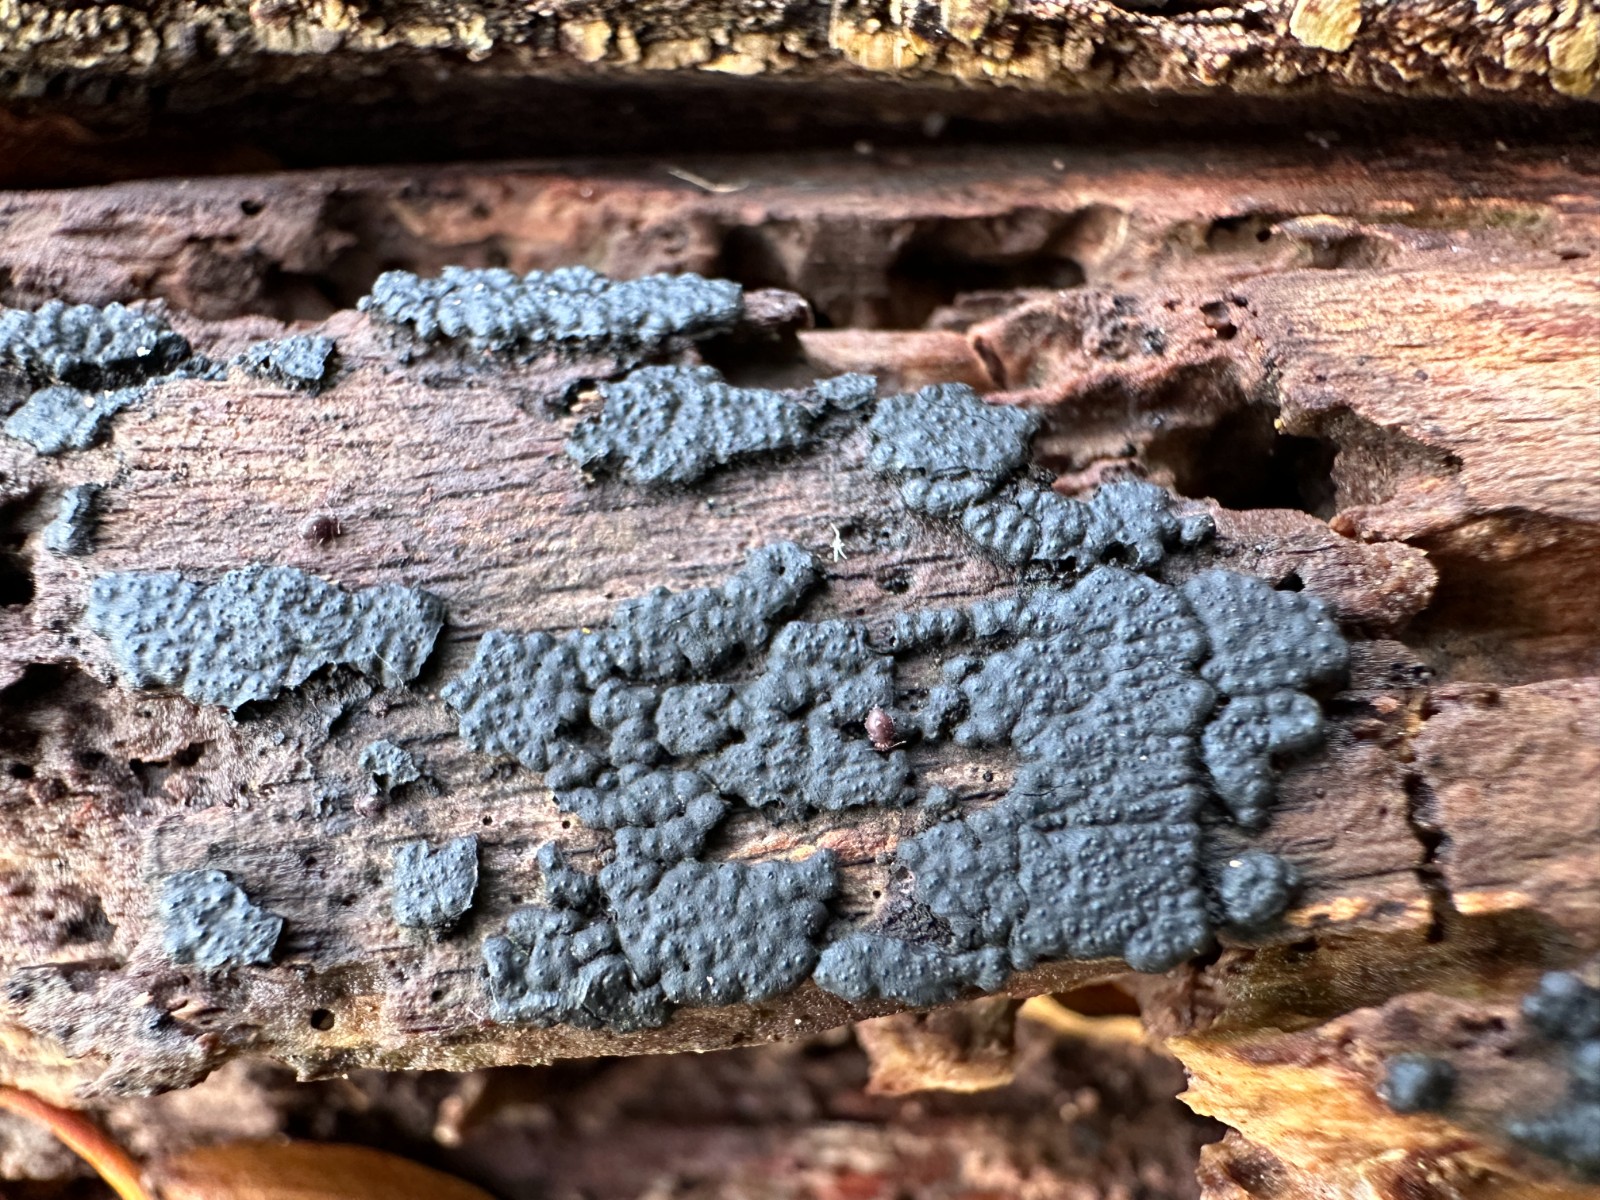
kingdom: Fungi
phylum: Ascomycota
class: Sordariomycetes
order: Xylariales
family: Xylariaceae
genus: Nemania
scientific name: Nemania serpens
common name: almindelig kuldyne
